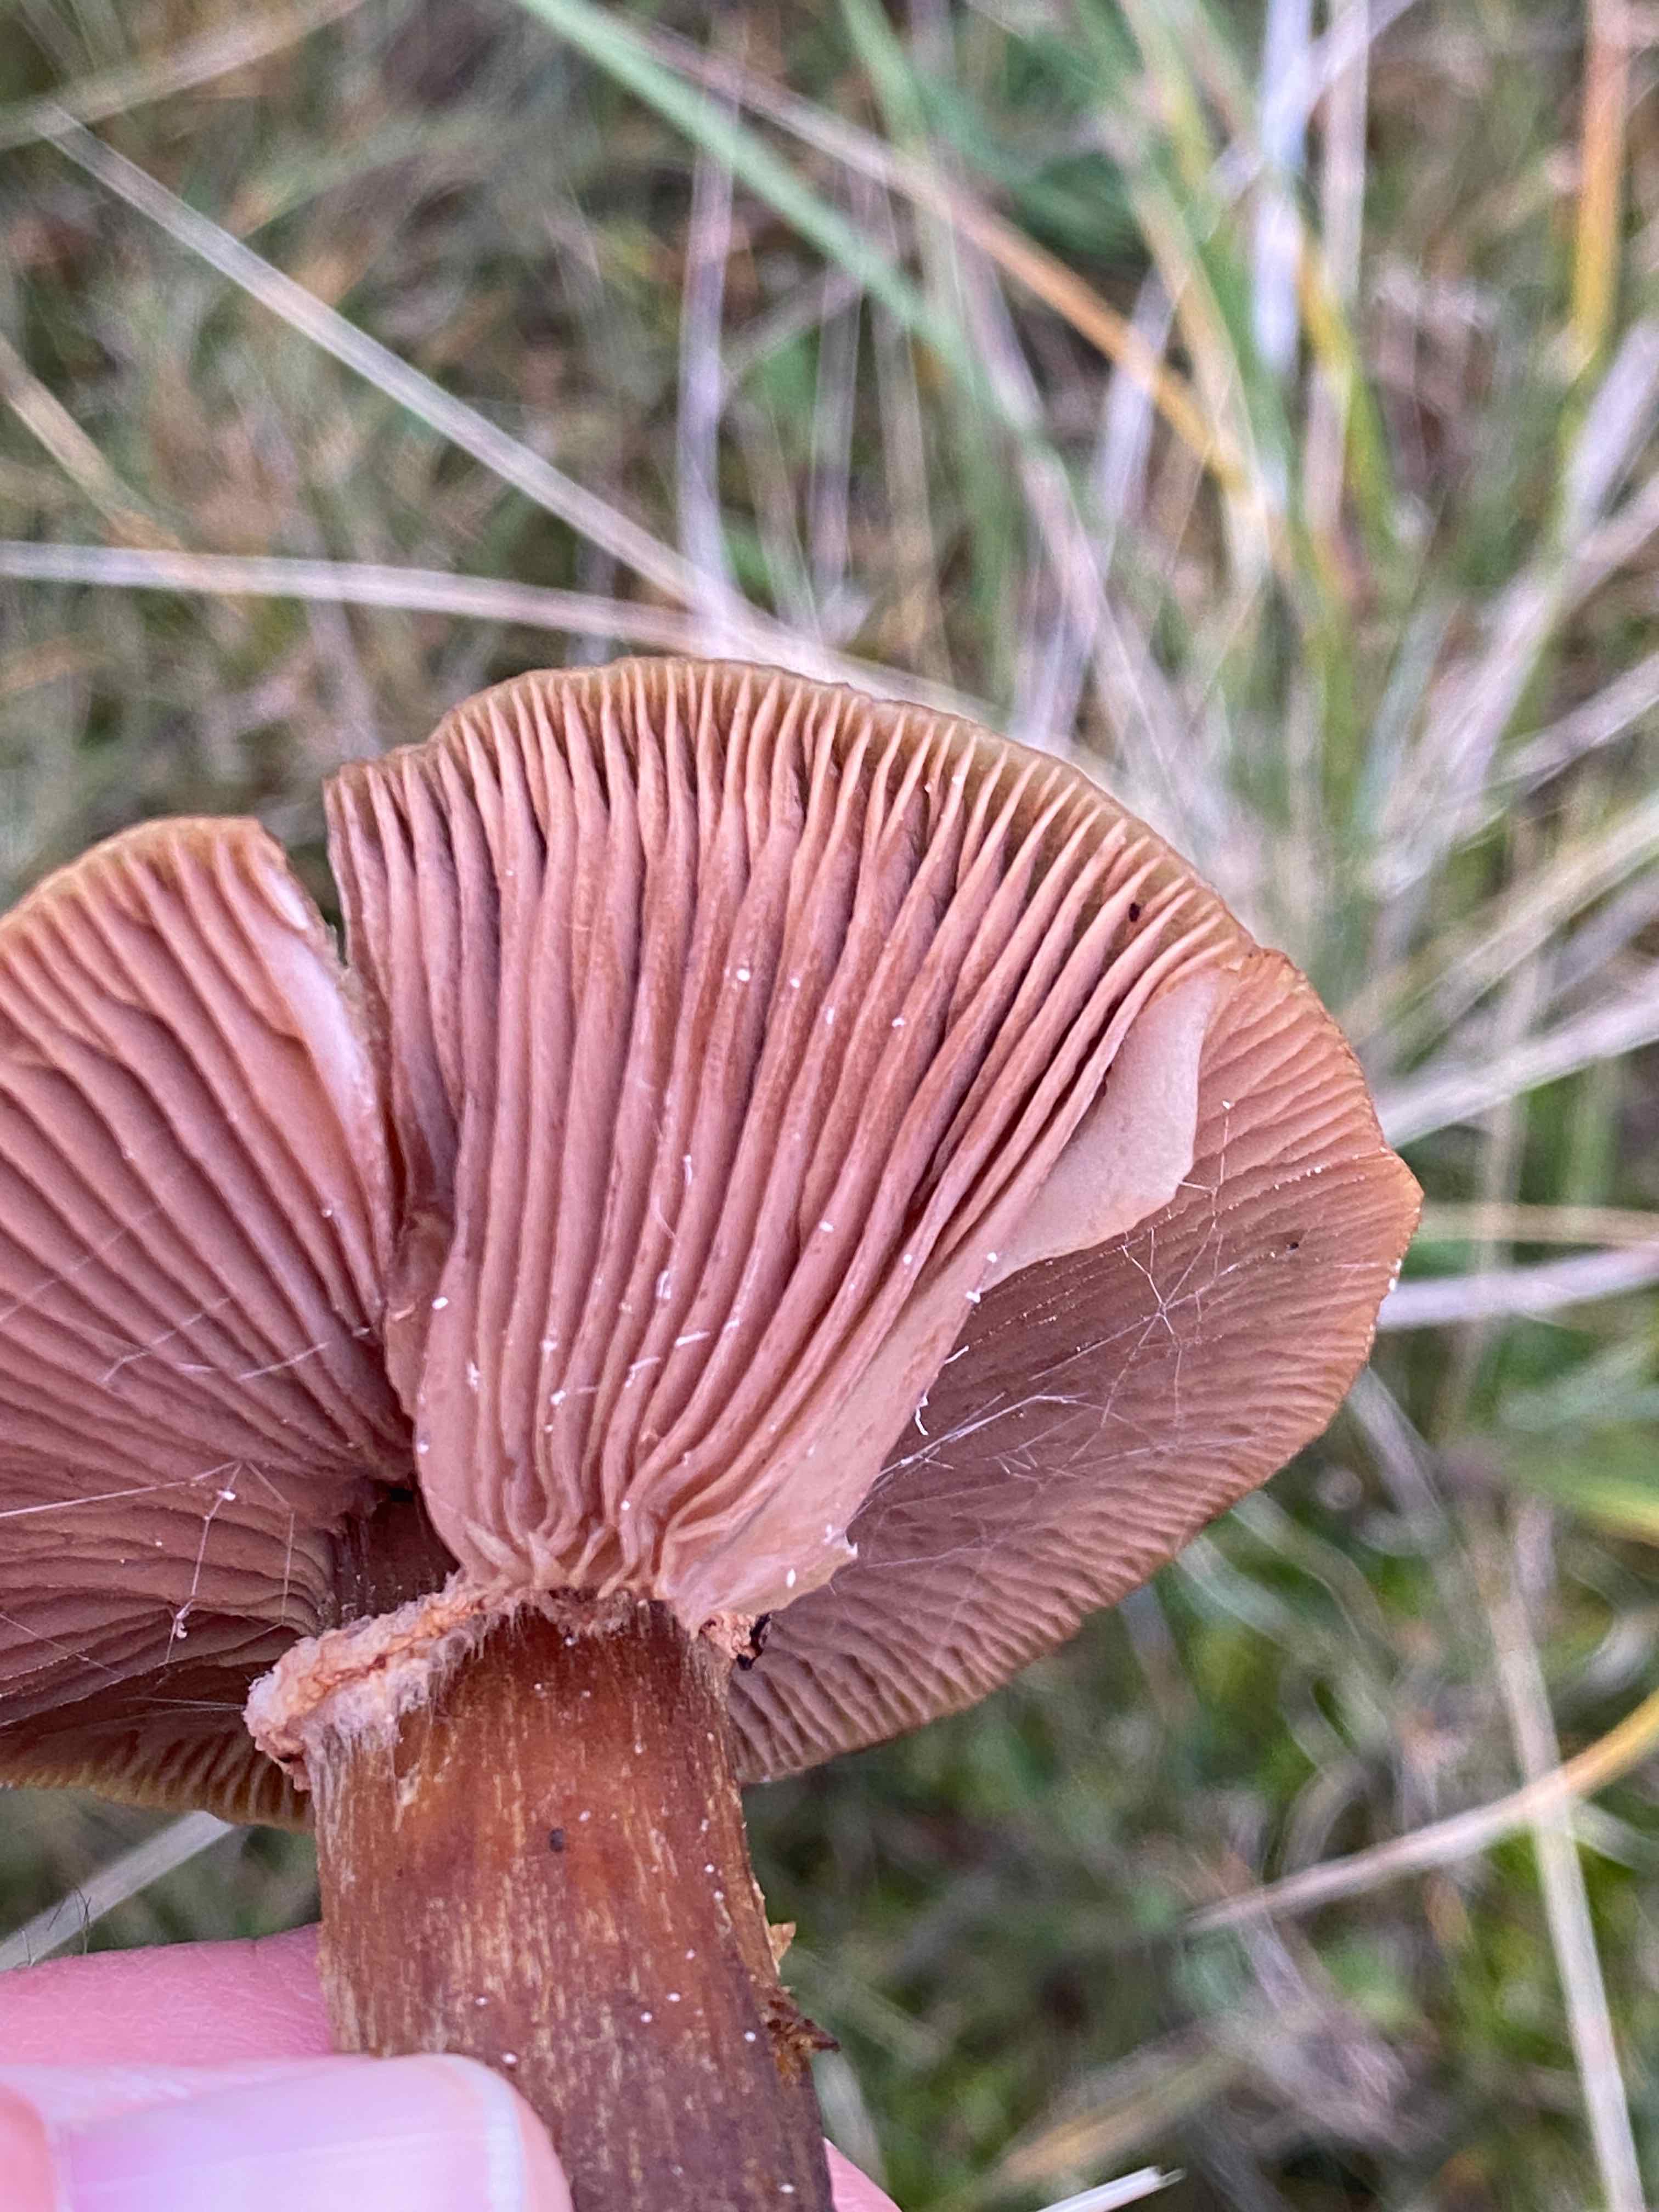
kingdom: Fungi
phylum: Basidiomycota
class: Agaricomycetes
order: Agaricales
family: Physalacriaceae
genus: Armillaria
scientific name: Armillaria
